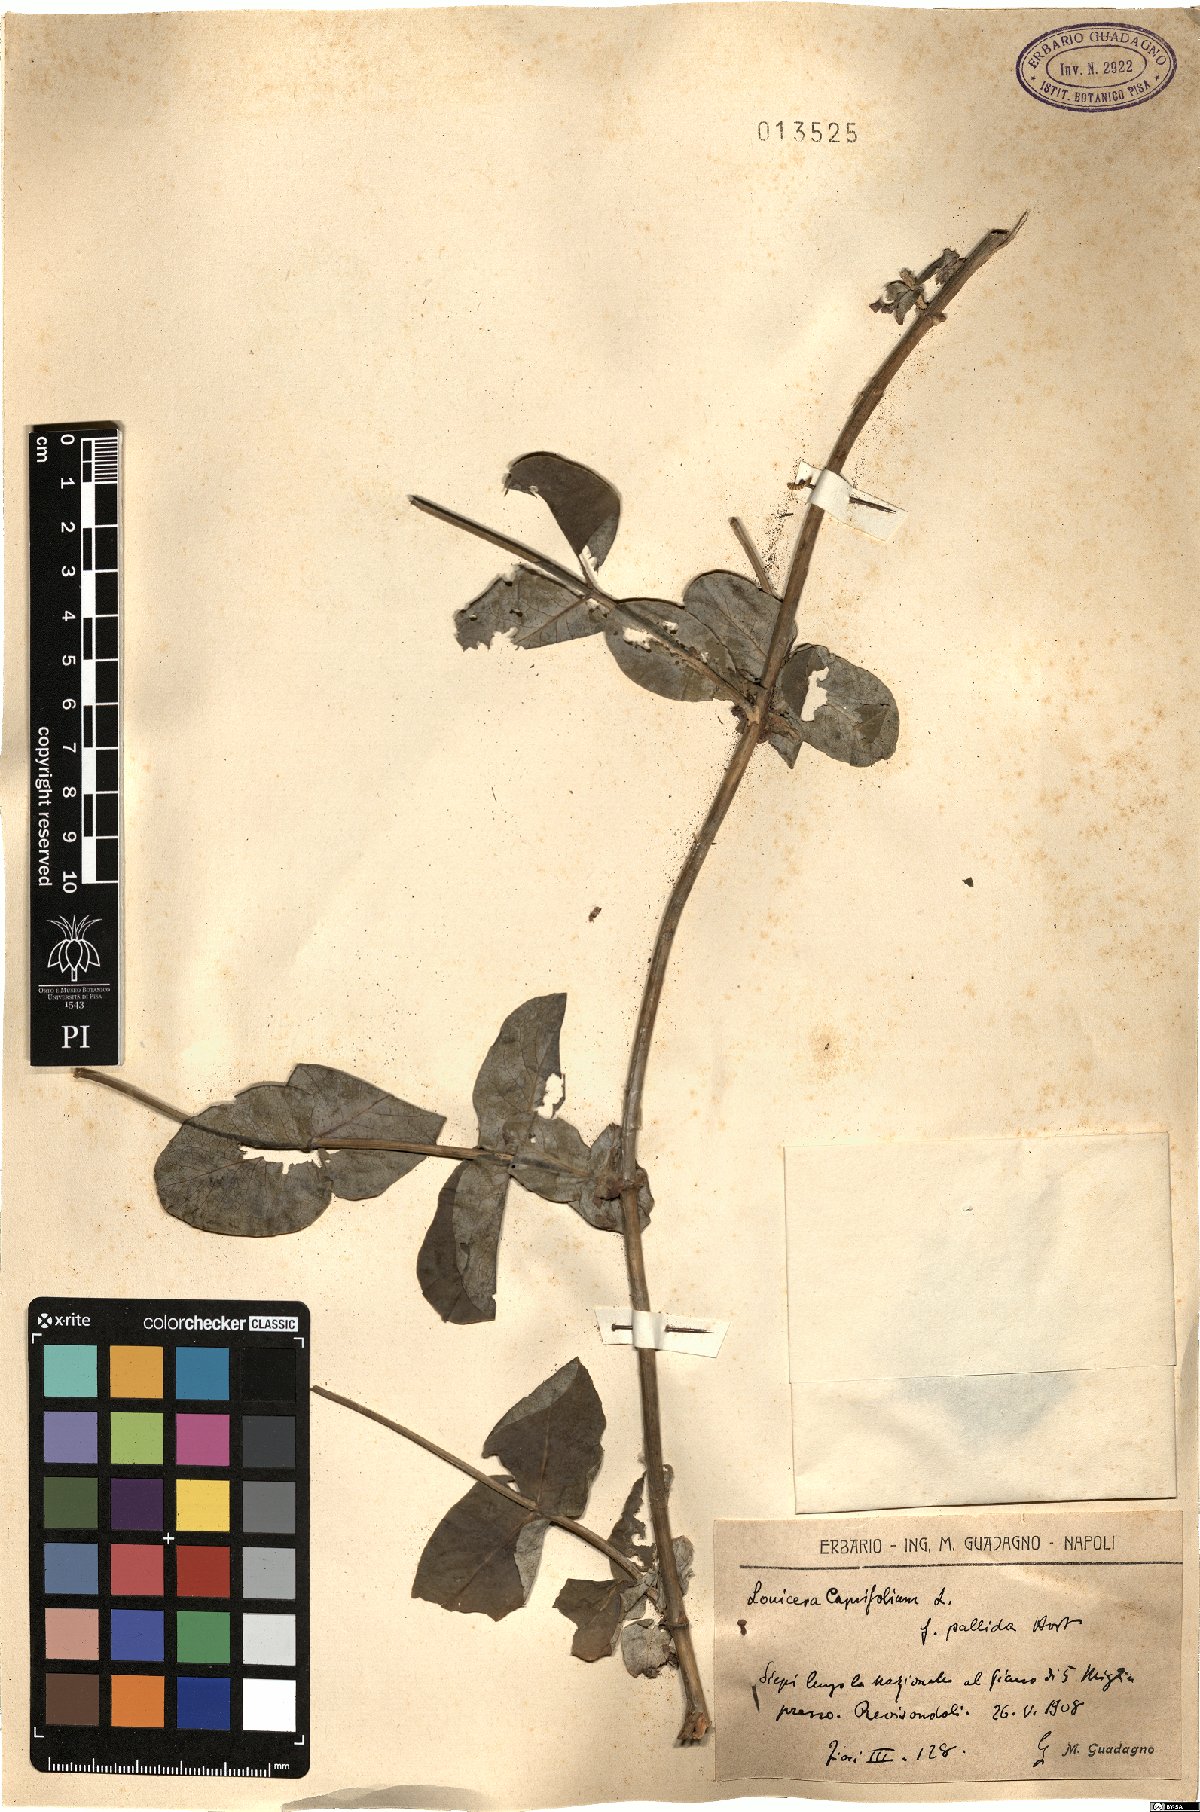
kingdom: Plantae
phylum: Tracheophyta
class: Magnoliopsida
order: Dipsacales
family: Caprifoliaceae
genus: Lonicera
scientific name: Lonicera caprifolium
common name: Perfoliate honeysuckle
